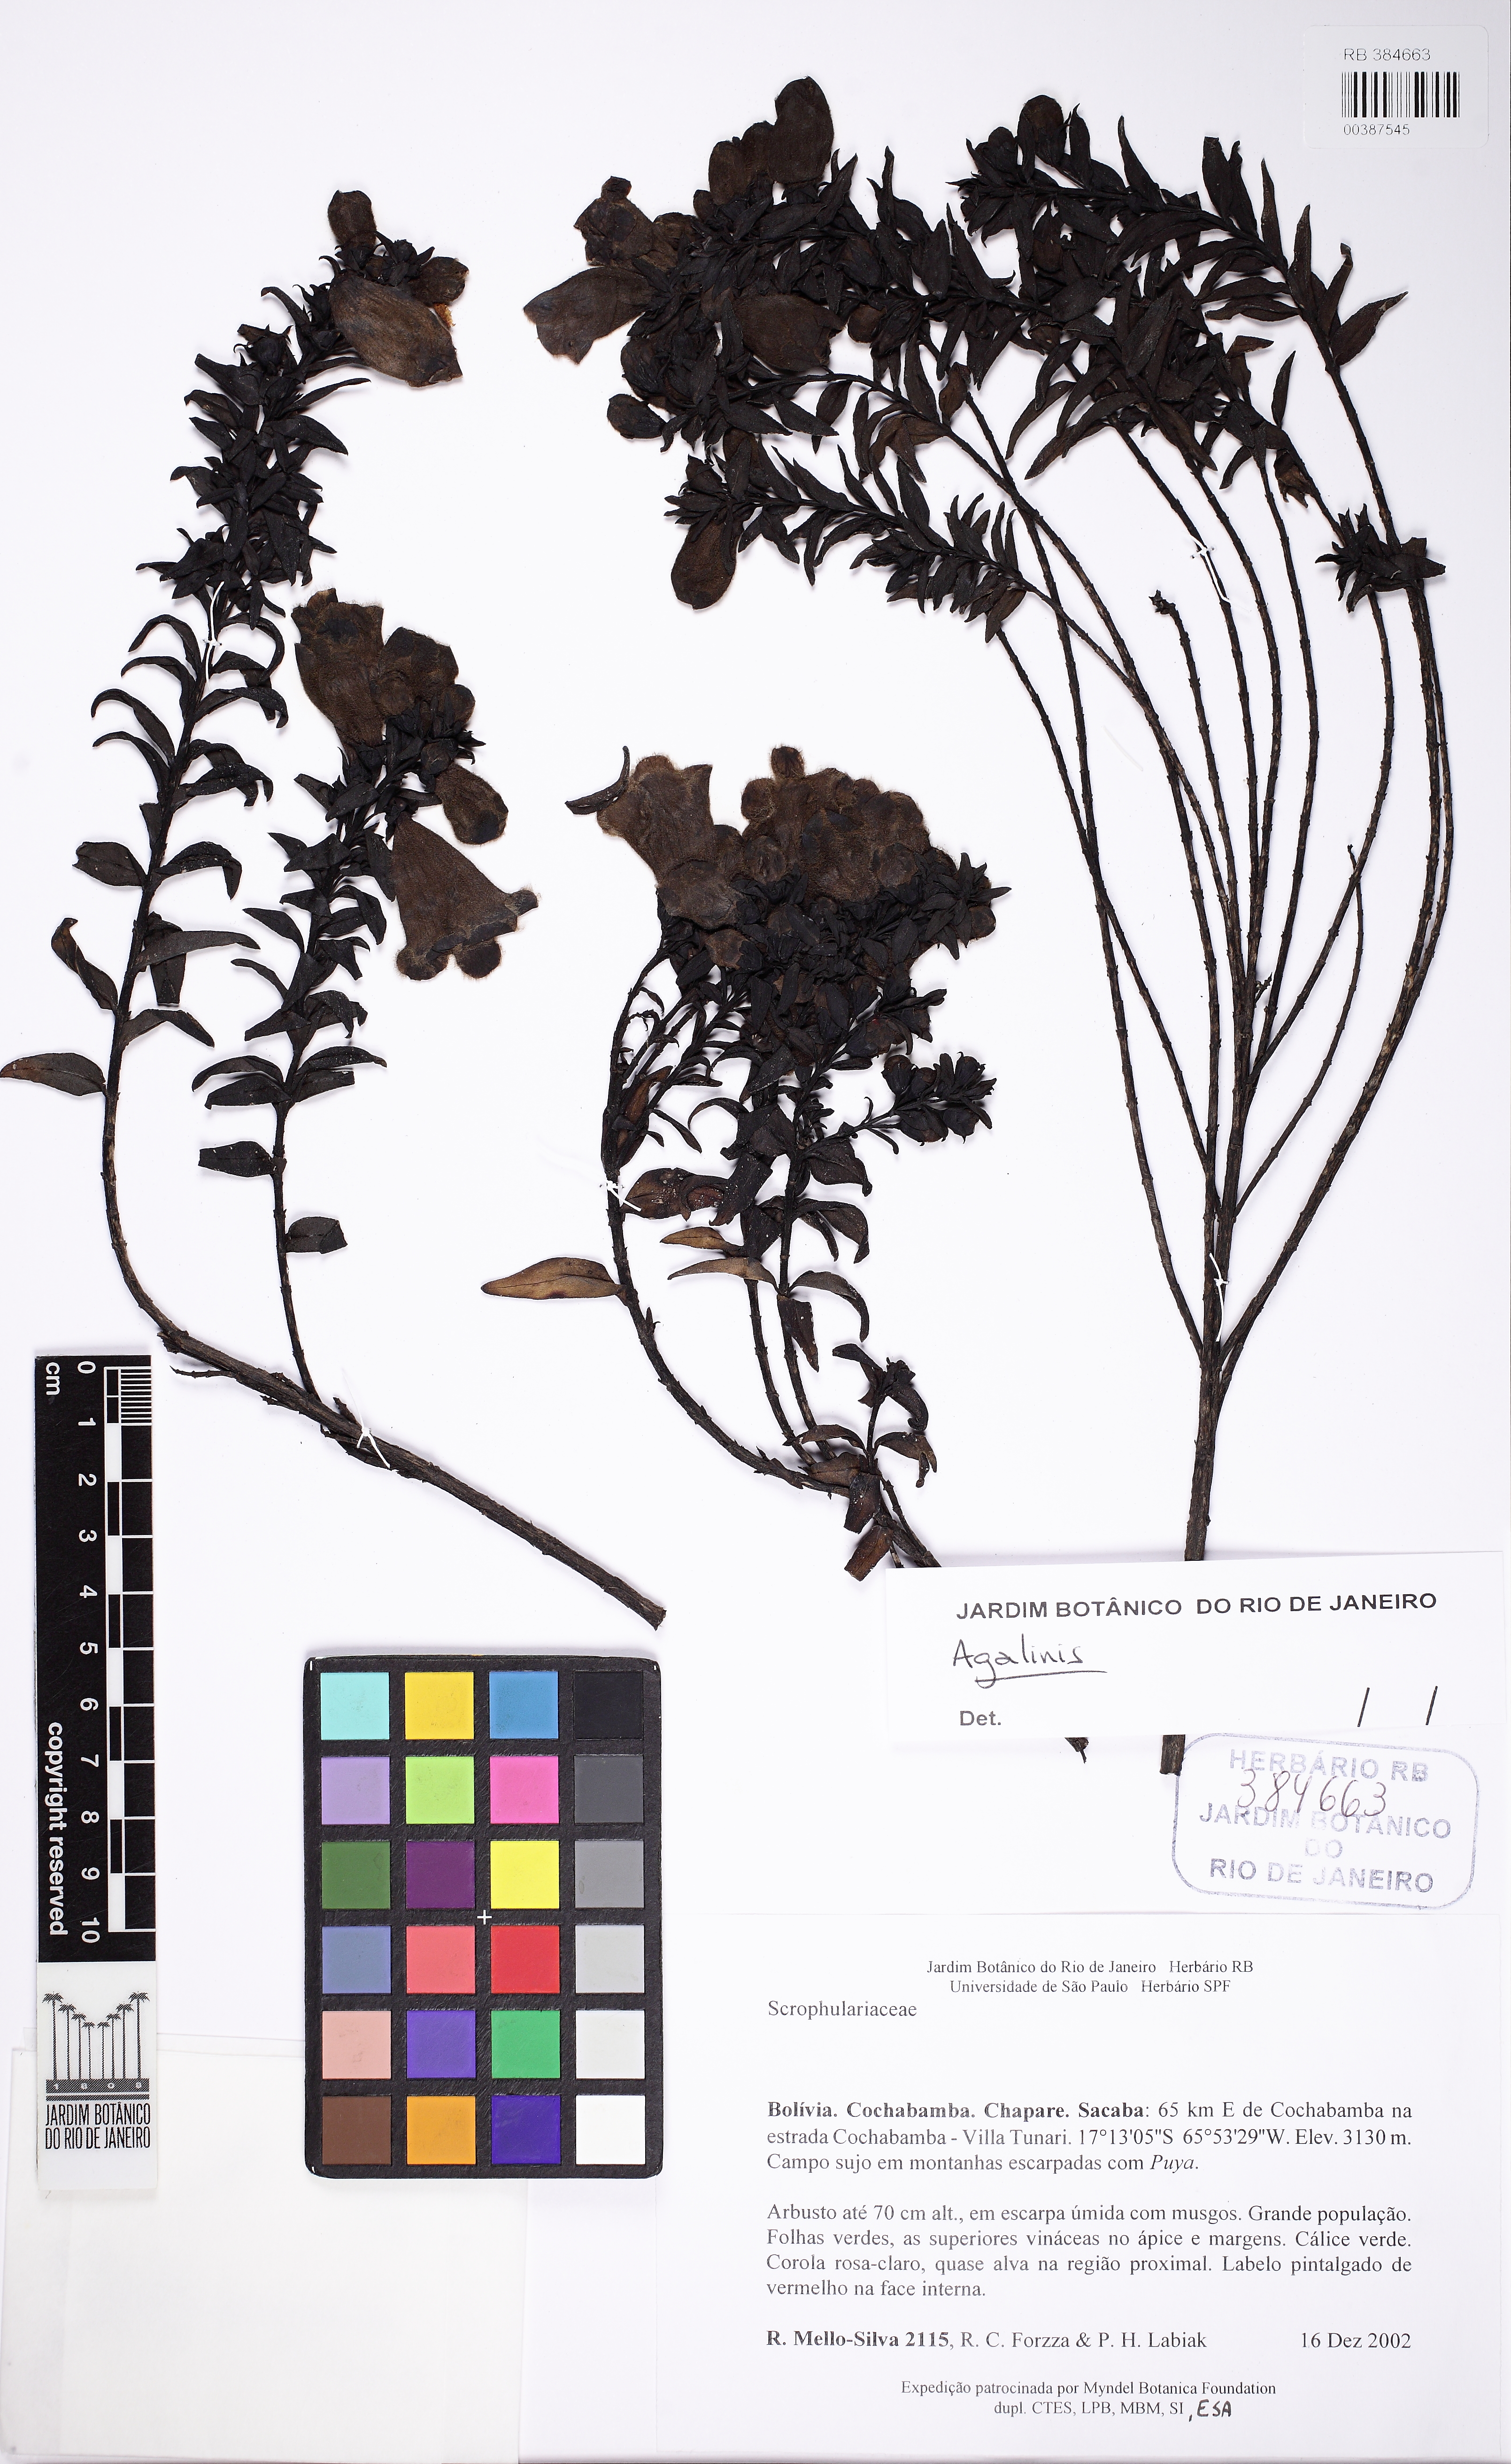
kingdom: Plantae
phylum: Tracheophyta
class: Magnoliopsida
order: Lamiales
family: Orobanchaceae
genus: Agalinis
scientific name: Agalinis
